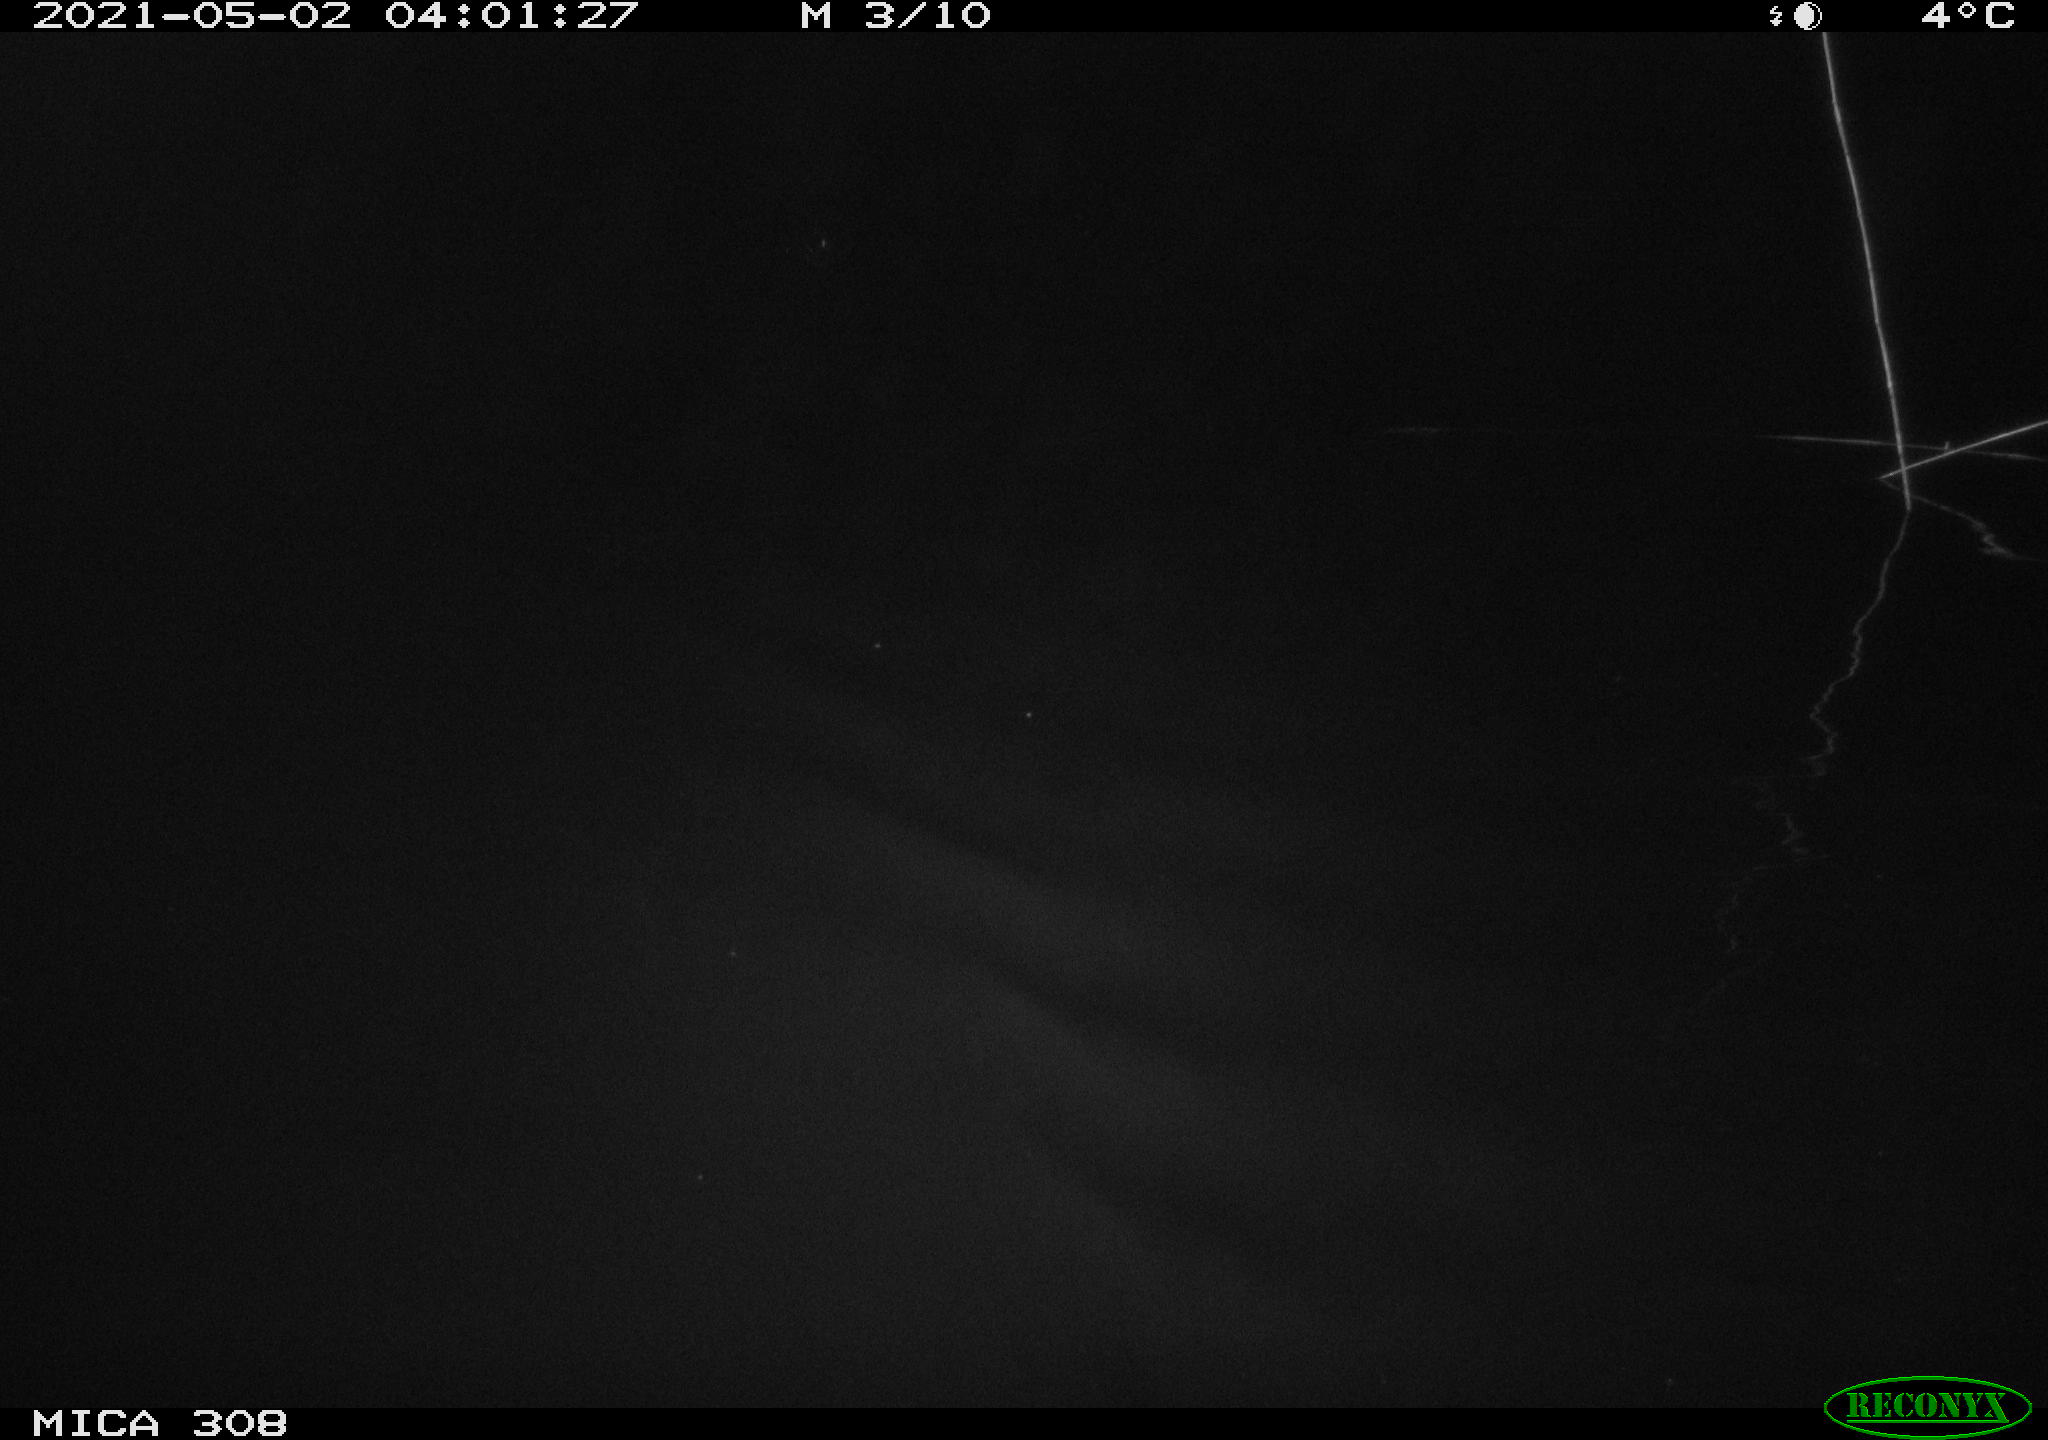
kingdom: Animalia
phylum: Chordata
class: Aves
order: Anseriformes
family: Anatidae
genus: Anas
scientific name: Anas platyrhynchos
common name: Mallard
